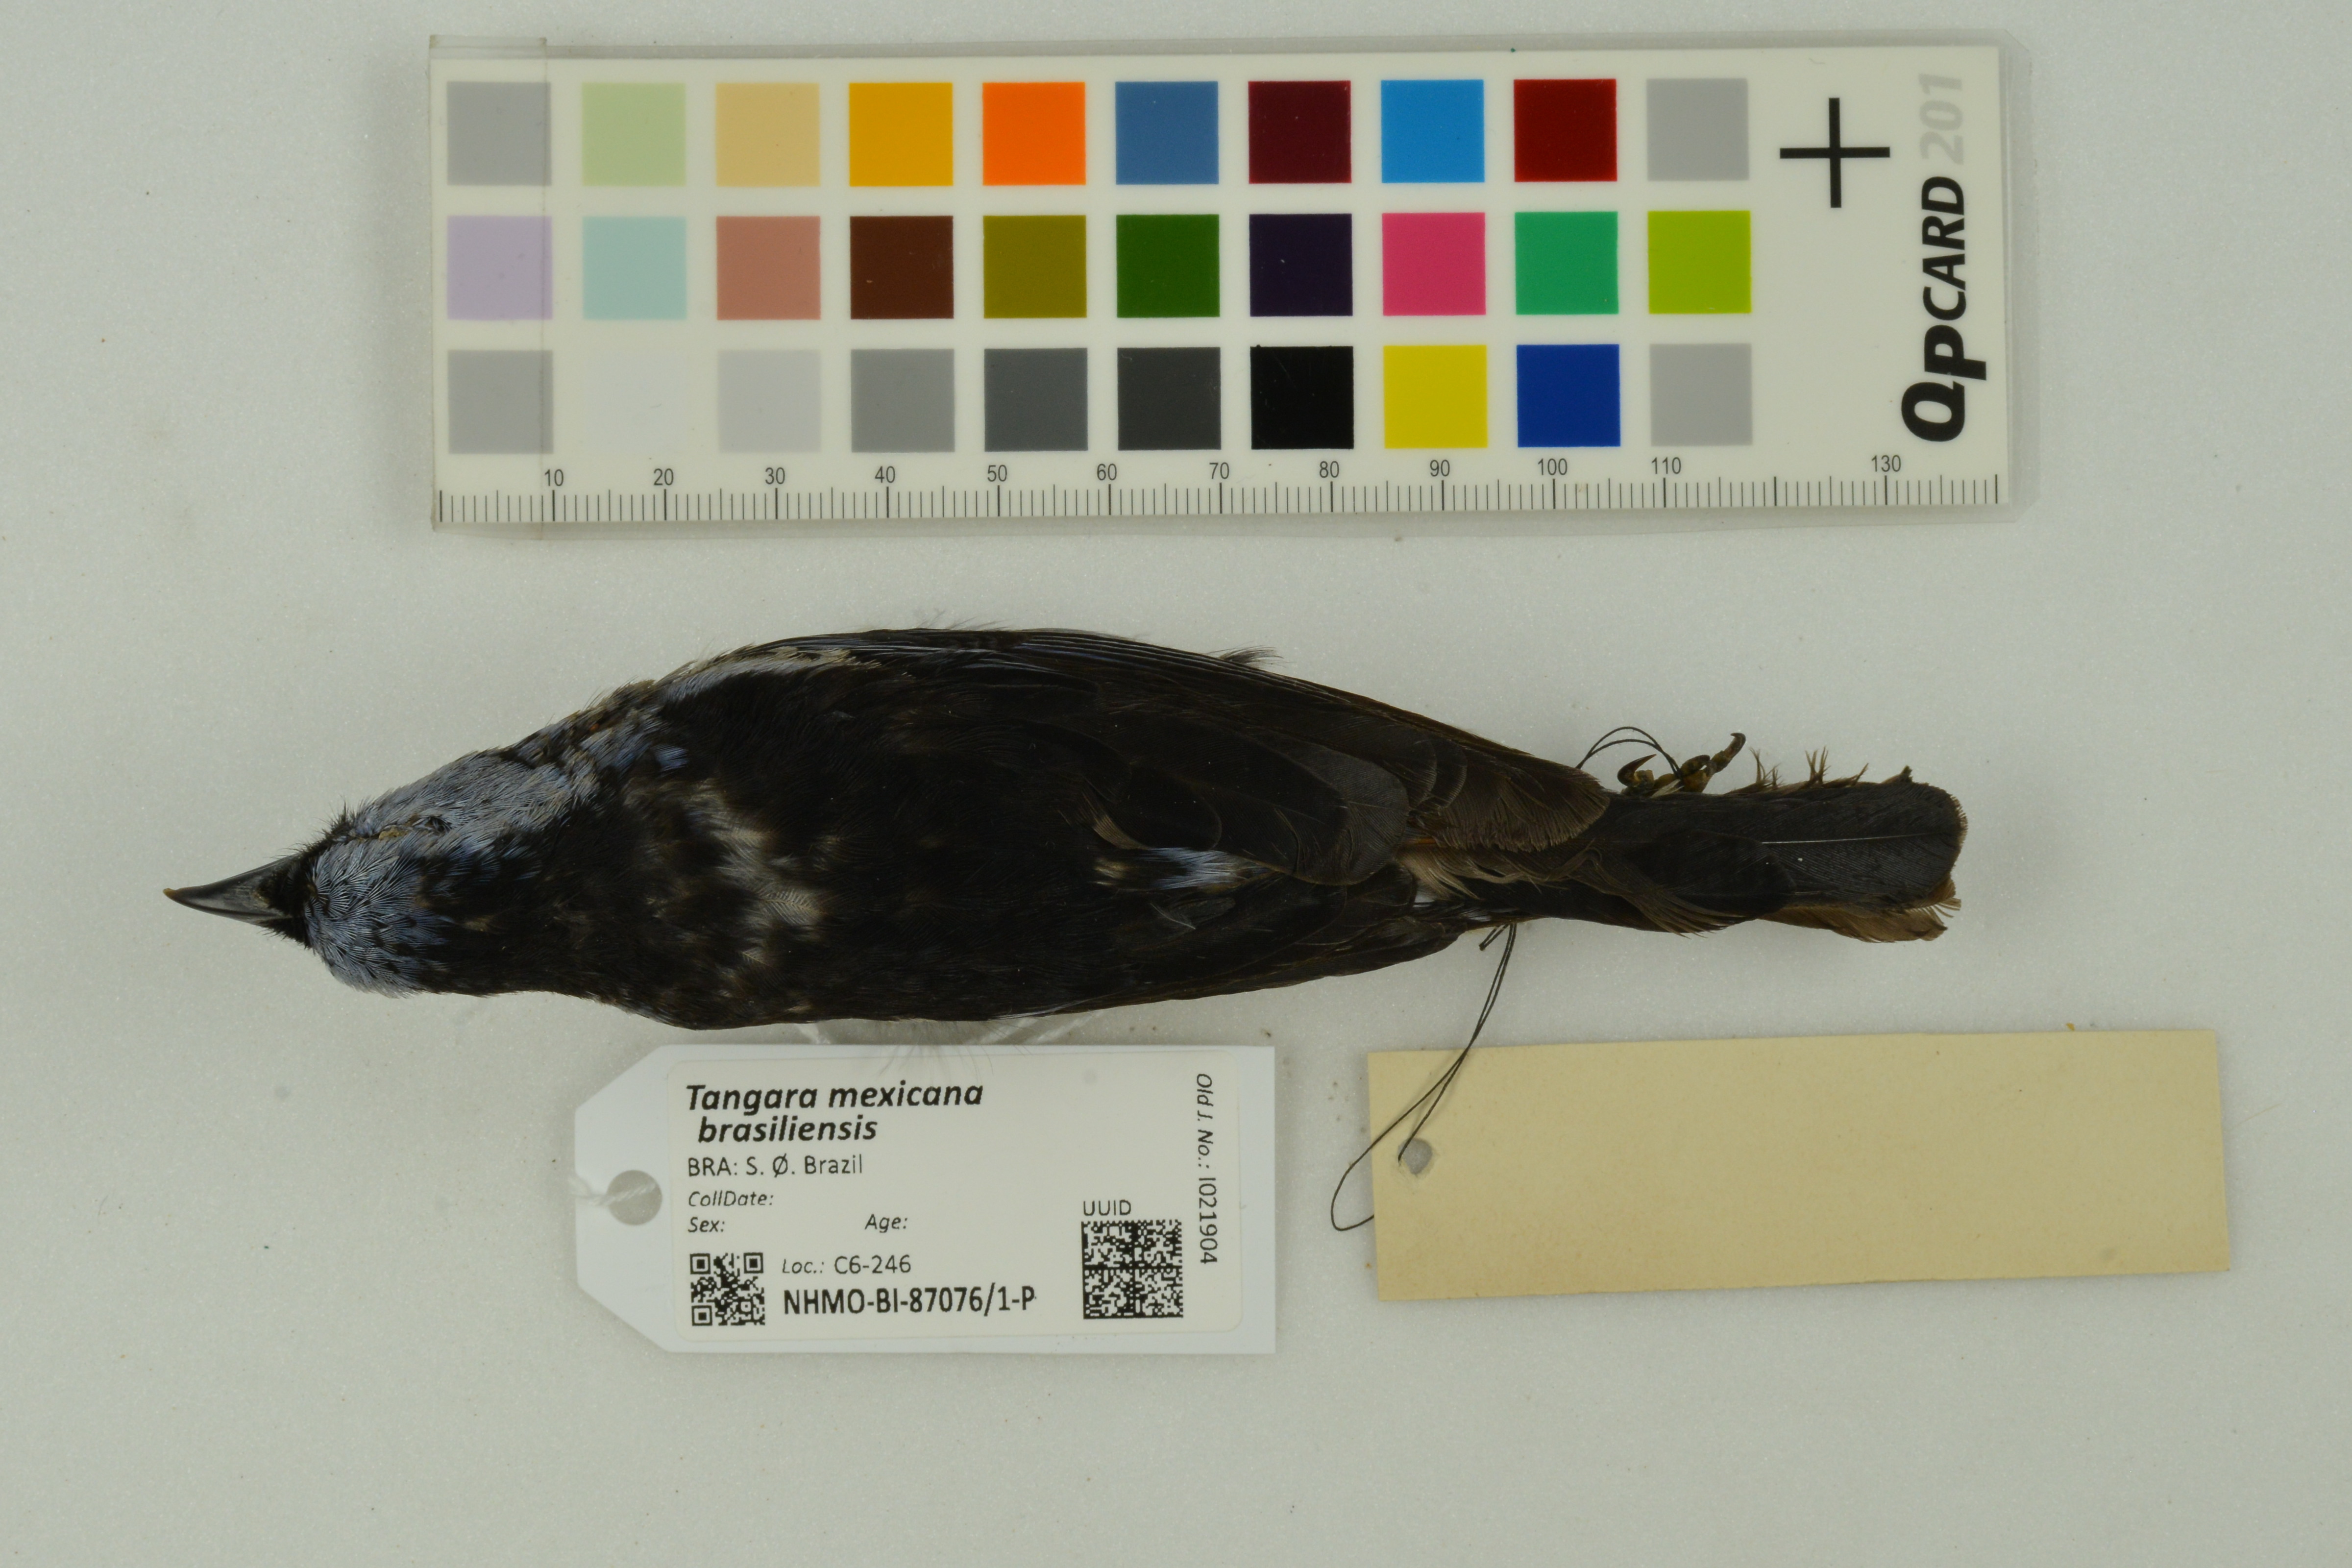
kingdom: Animalia
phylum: Chordata
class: Aves
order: Passeriformes
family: Thraupidae
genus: Tangara
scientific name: Tangara mexicana
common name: Turquoise tanager
